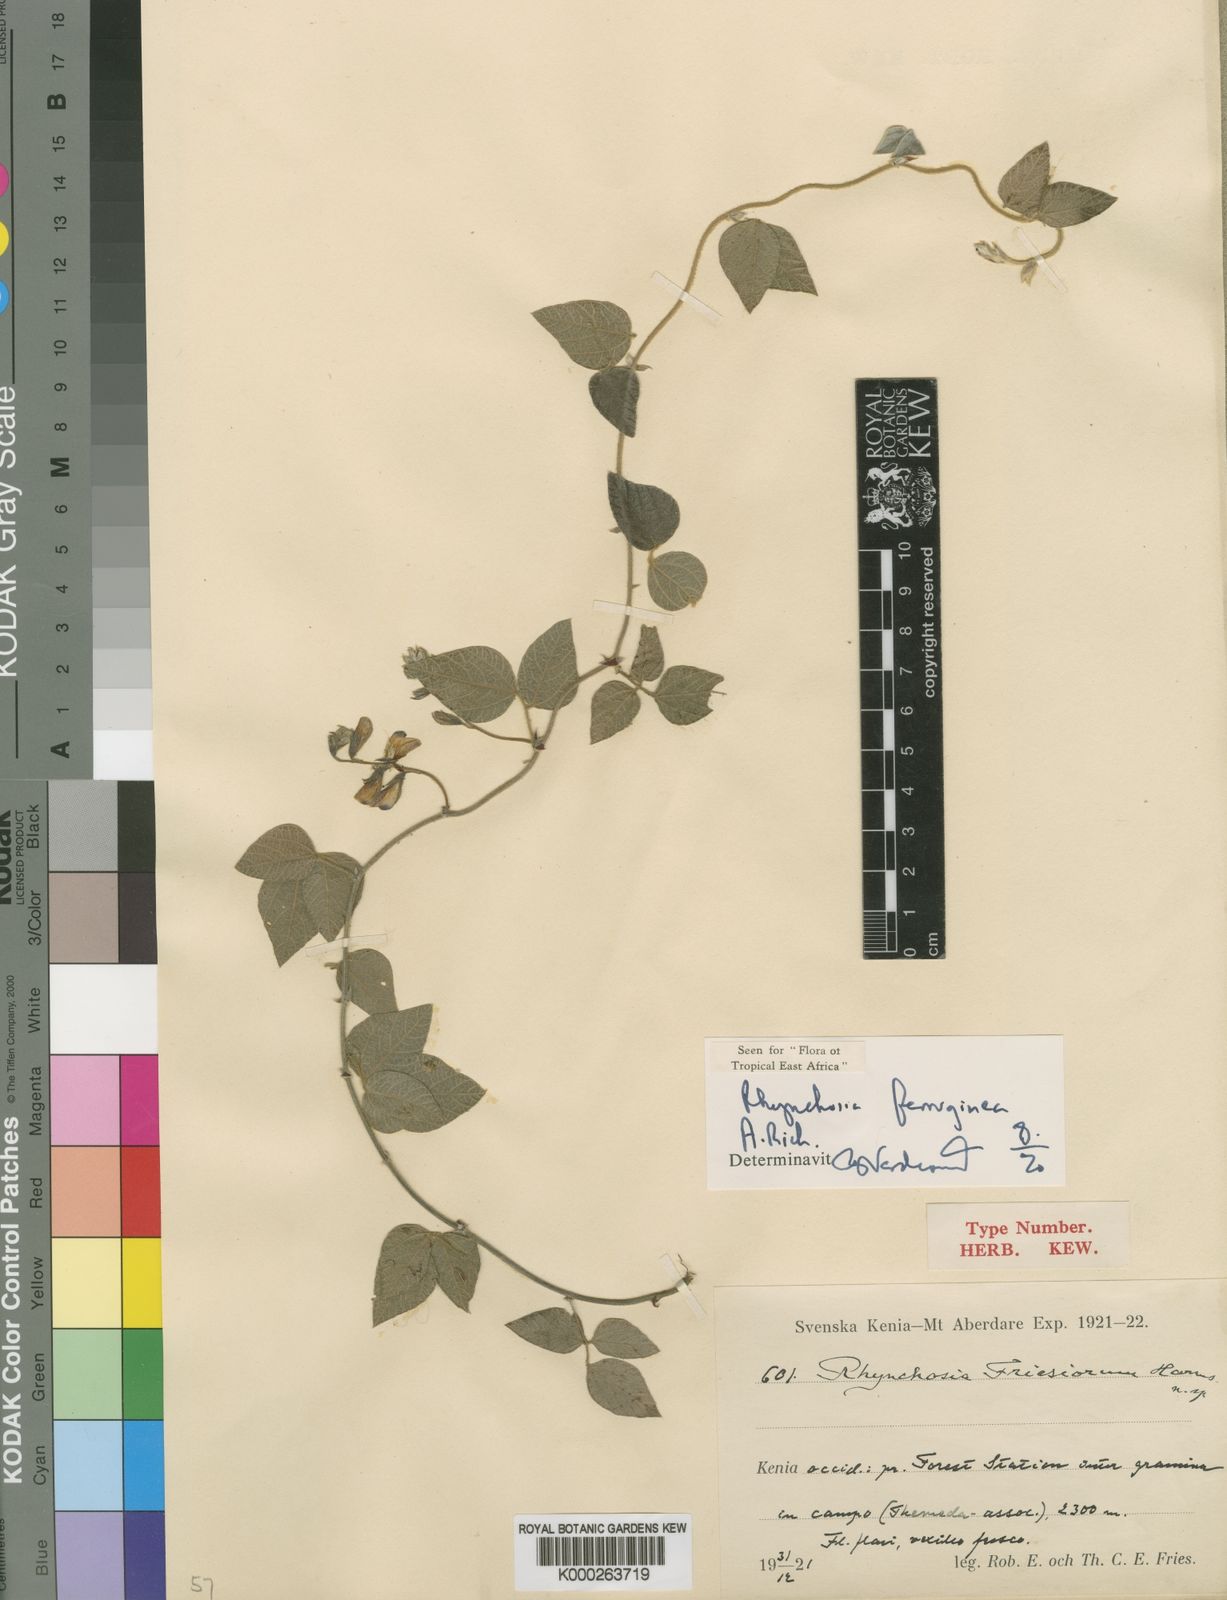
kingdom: Plantae
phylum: Tracheophyta
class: Magnoliopsida
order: Fabales
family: Fabaceae
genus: Rhynchosia
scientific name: Rhynchosia ferruginea
